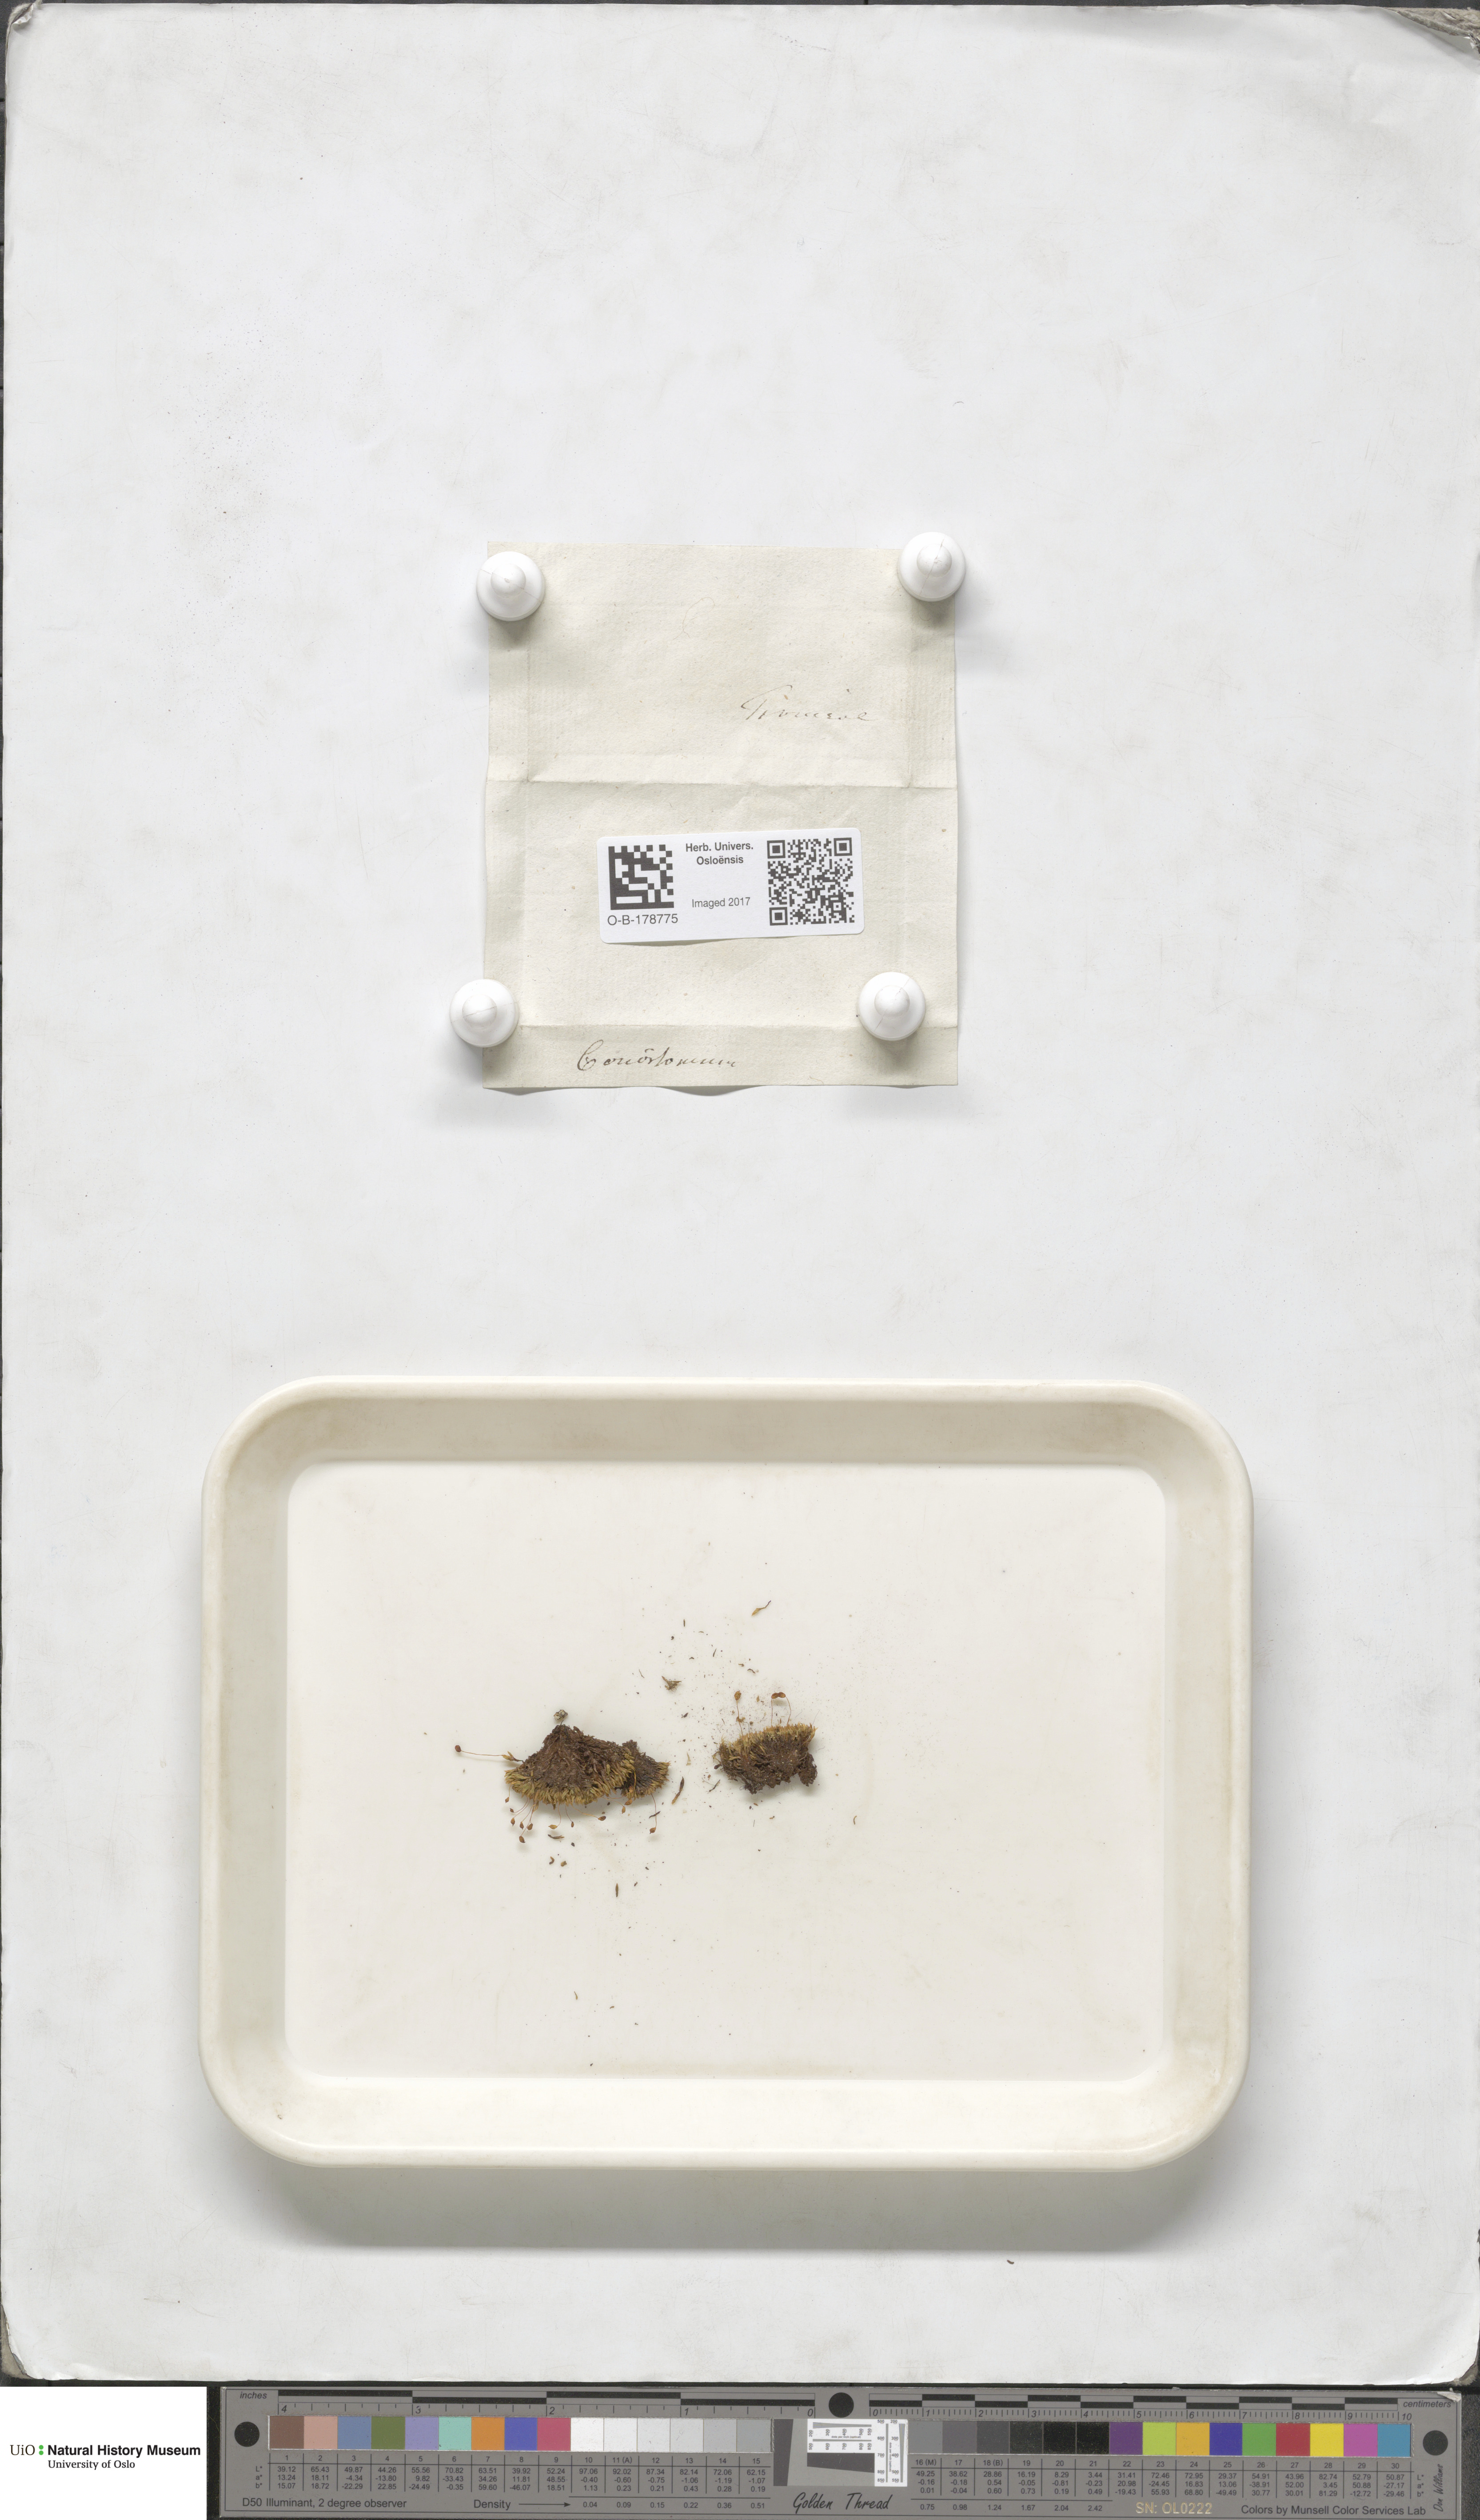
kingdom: Plantae
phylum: Bryophyta
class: Bryopsida
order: Bartramiales
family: Bartramiaceae
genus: Conostomum
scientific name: Conostomum tetragonum
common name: Helmet moss
